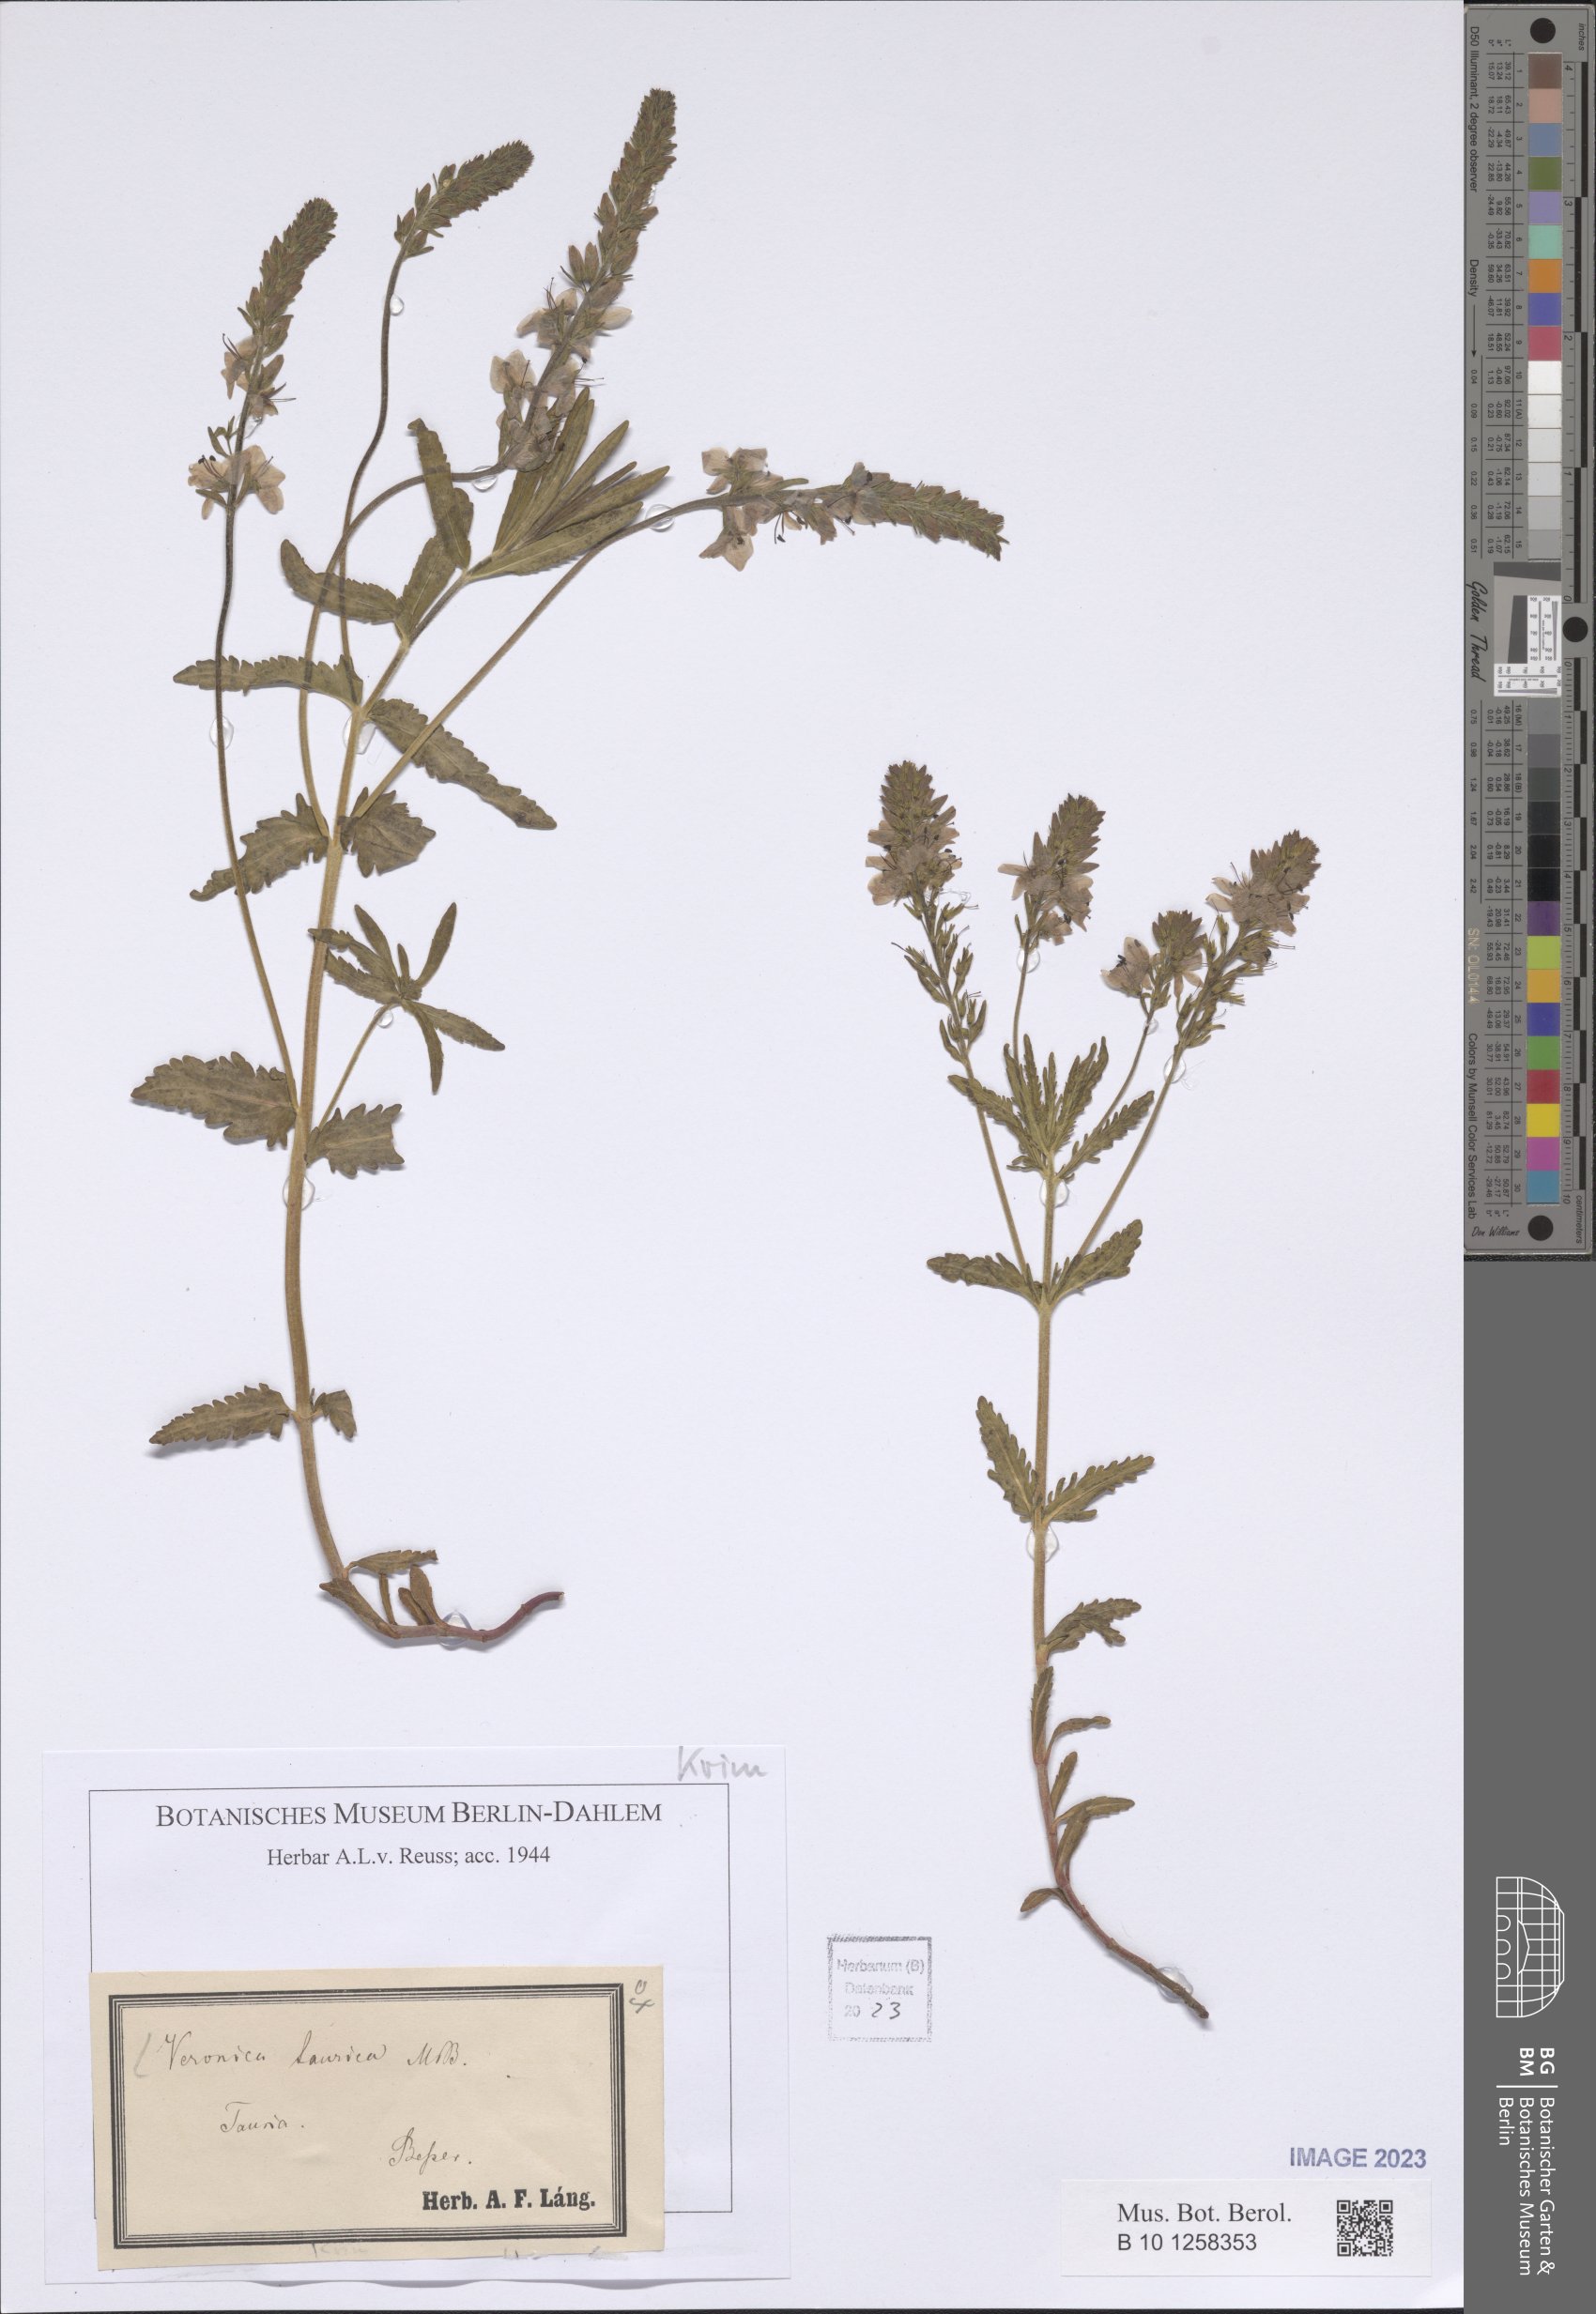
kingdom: Plantae
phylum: Tracheophyta
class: Magnoliopsida
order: Lamiales
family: Plantaginaceae
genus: Veronica
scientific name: Veronica taurica
